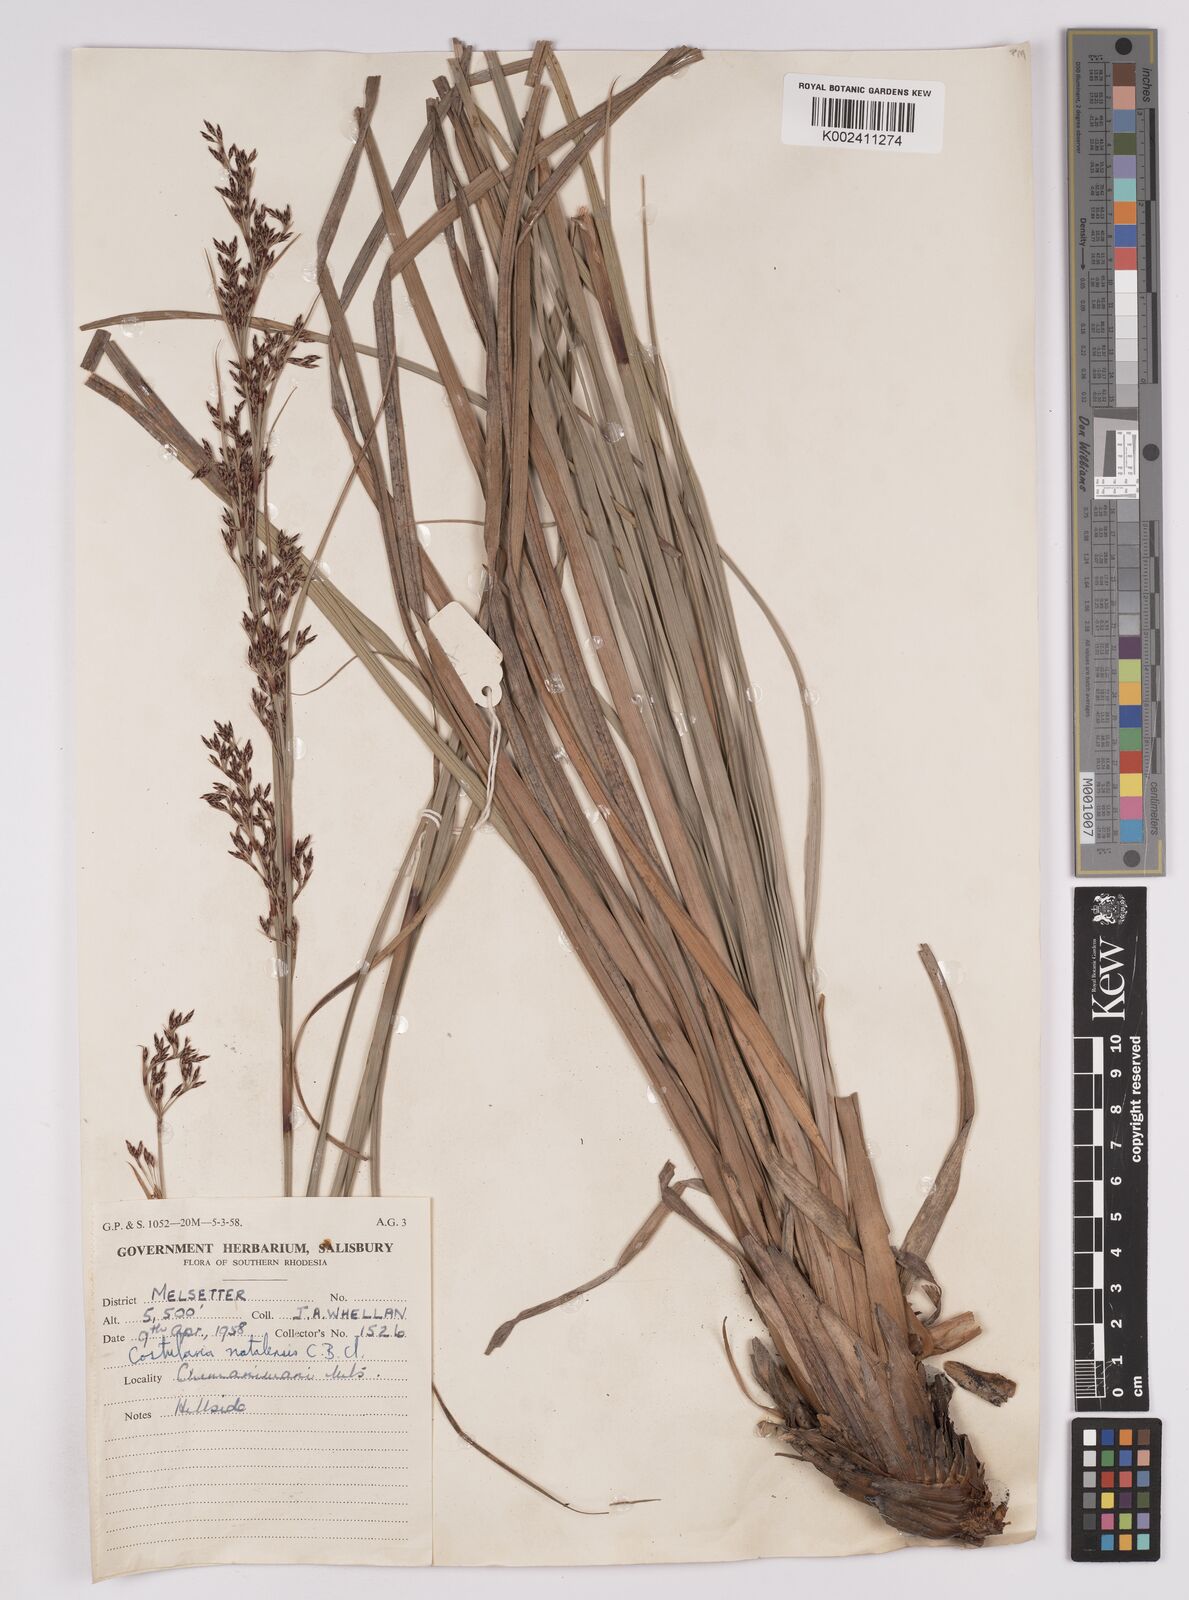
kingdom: Plantae
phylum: Tracheophyta
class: Liliopsida
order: Poales
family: Cyperaceae
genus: Costularia
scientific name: Costularia natalensis
